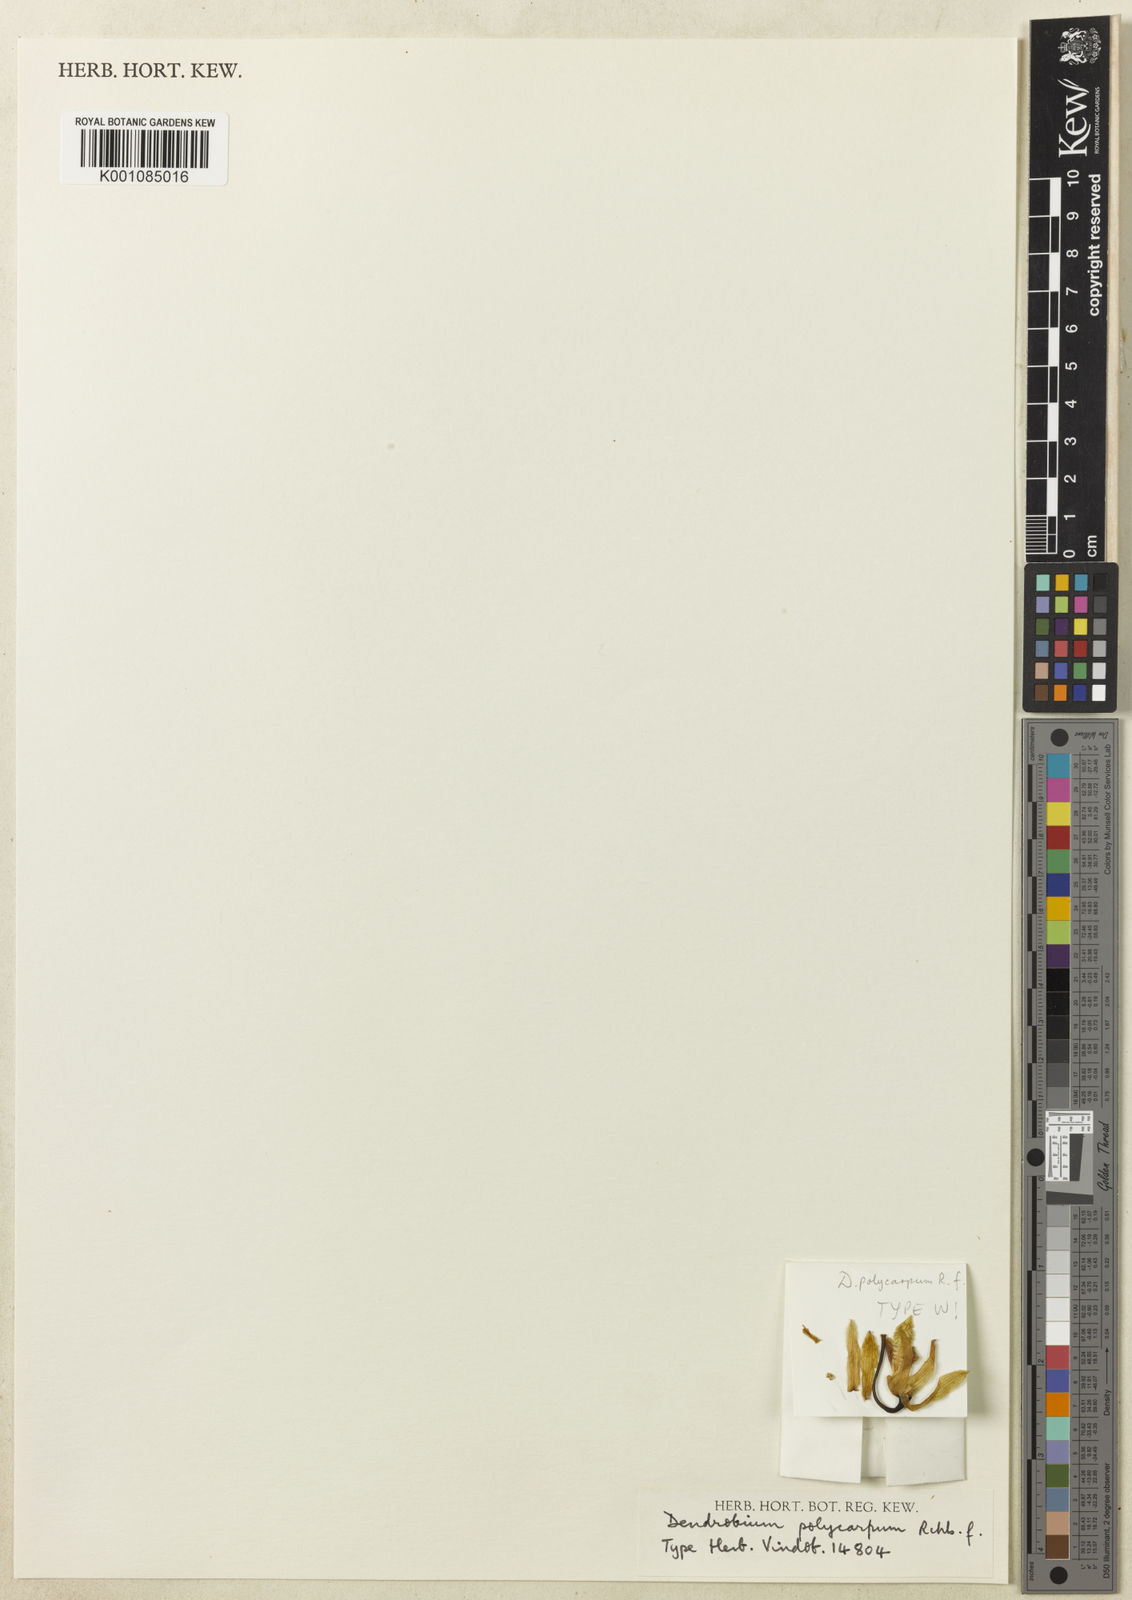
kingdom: Plantae
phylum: Tracheophyta
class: Liliopsida
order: Asparagales
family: Orchidaceae
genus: Dendrobium
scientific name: Dendrobium mirbelianum
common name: Orchid
